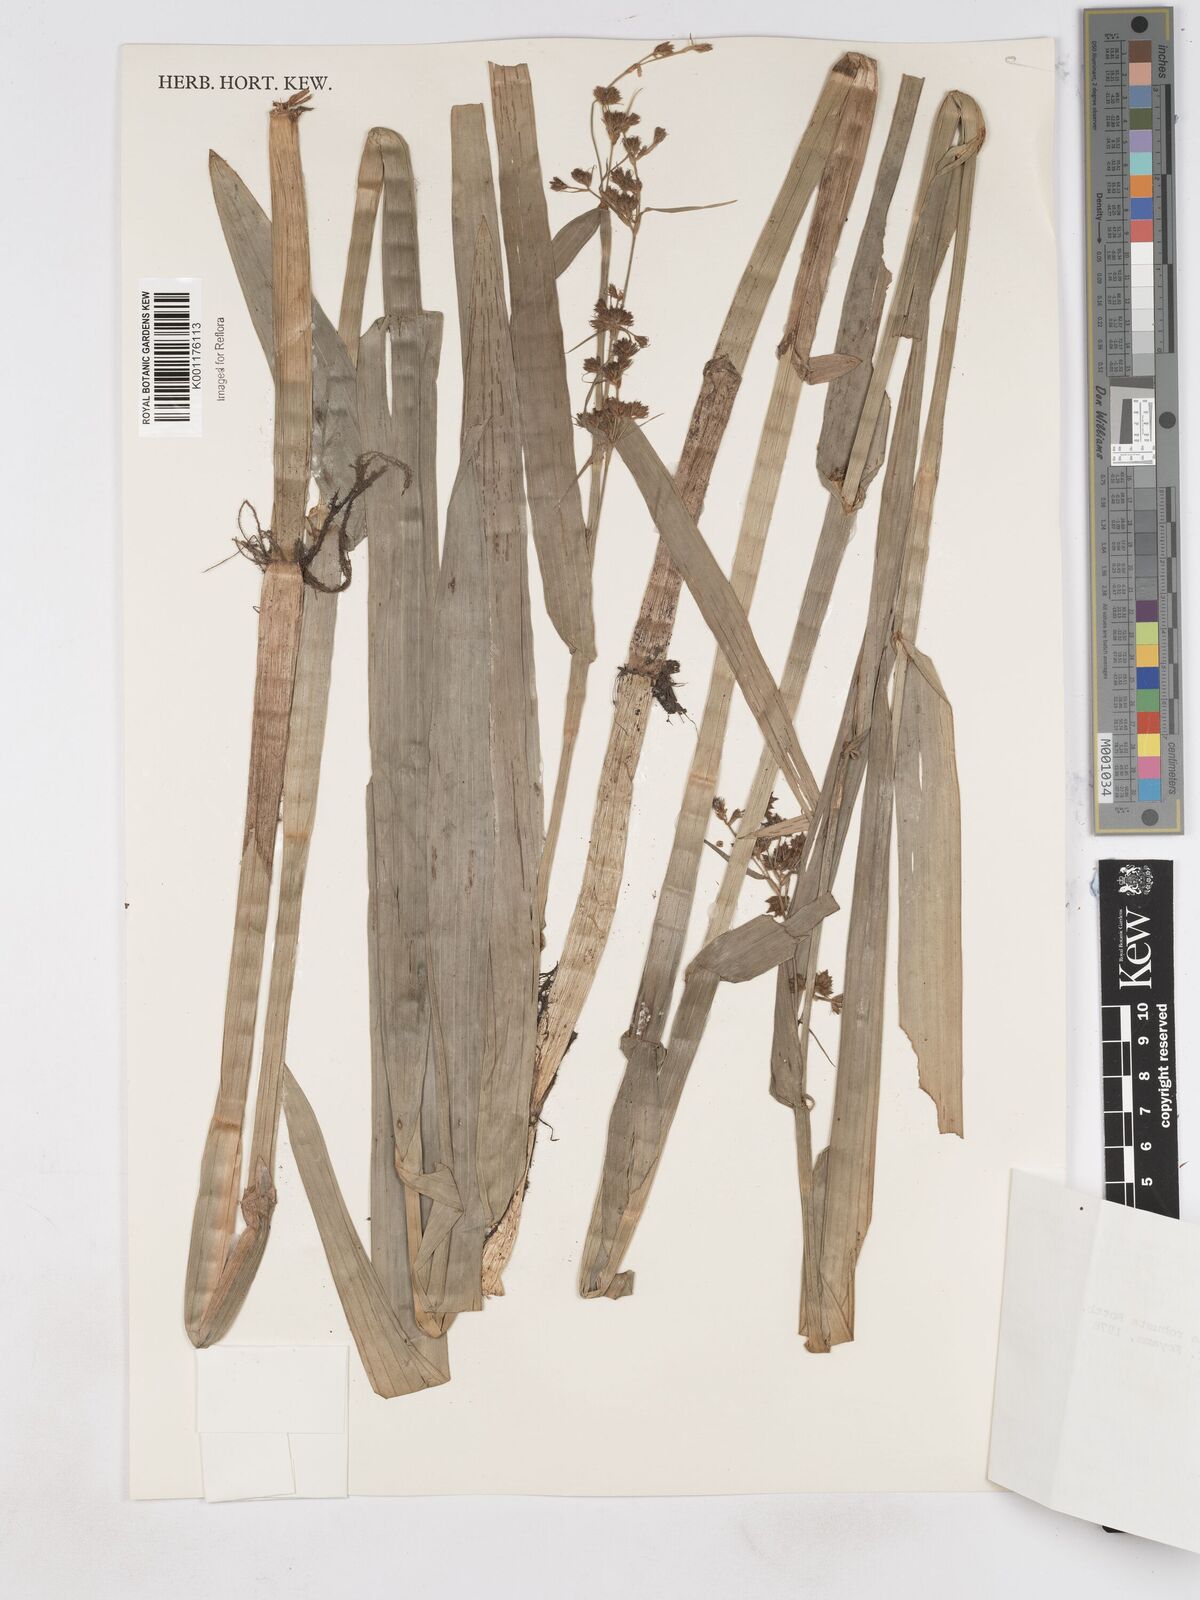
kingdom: Plantae
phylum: Tracheophyta
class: Liliopsida
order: Poales
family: Cyperaceae
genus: Fuirena
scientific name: Fuirena robusta
